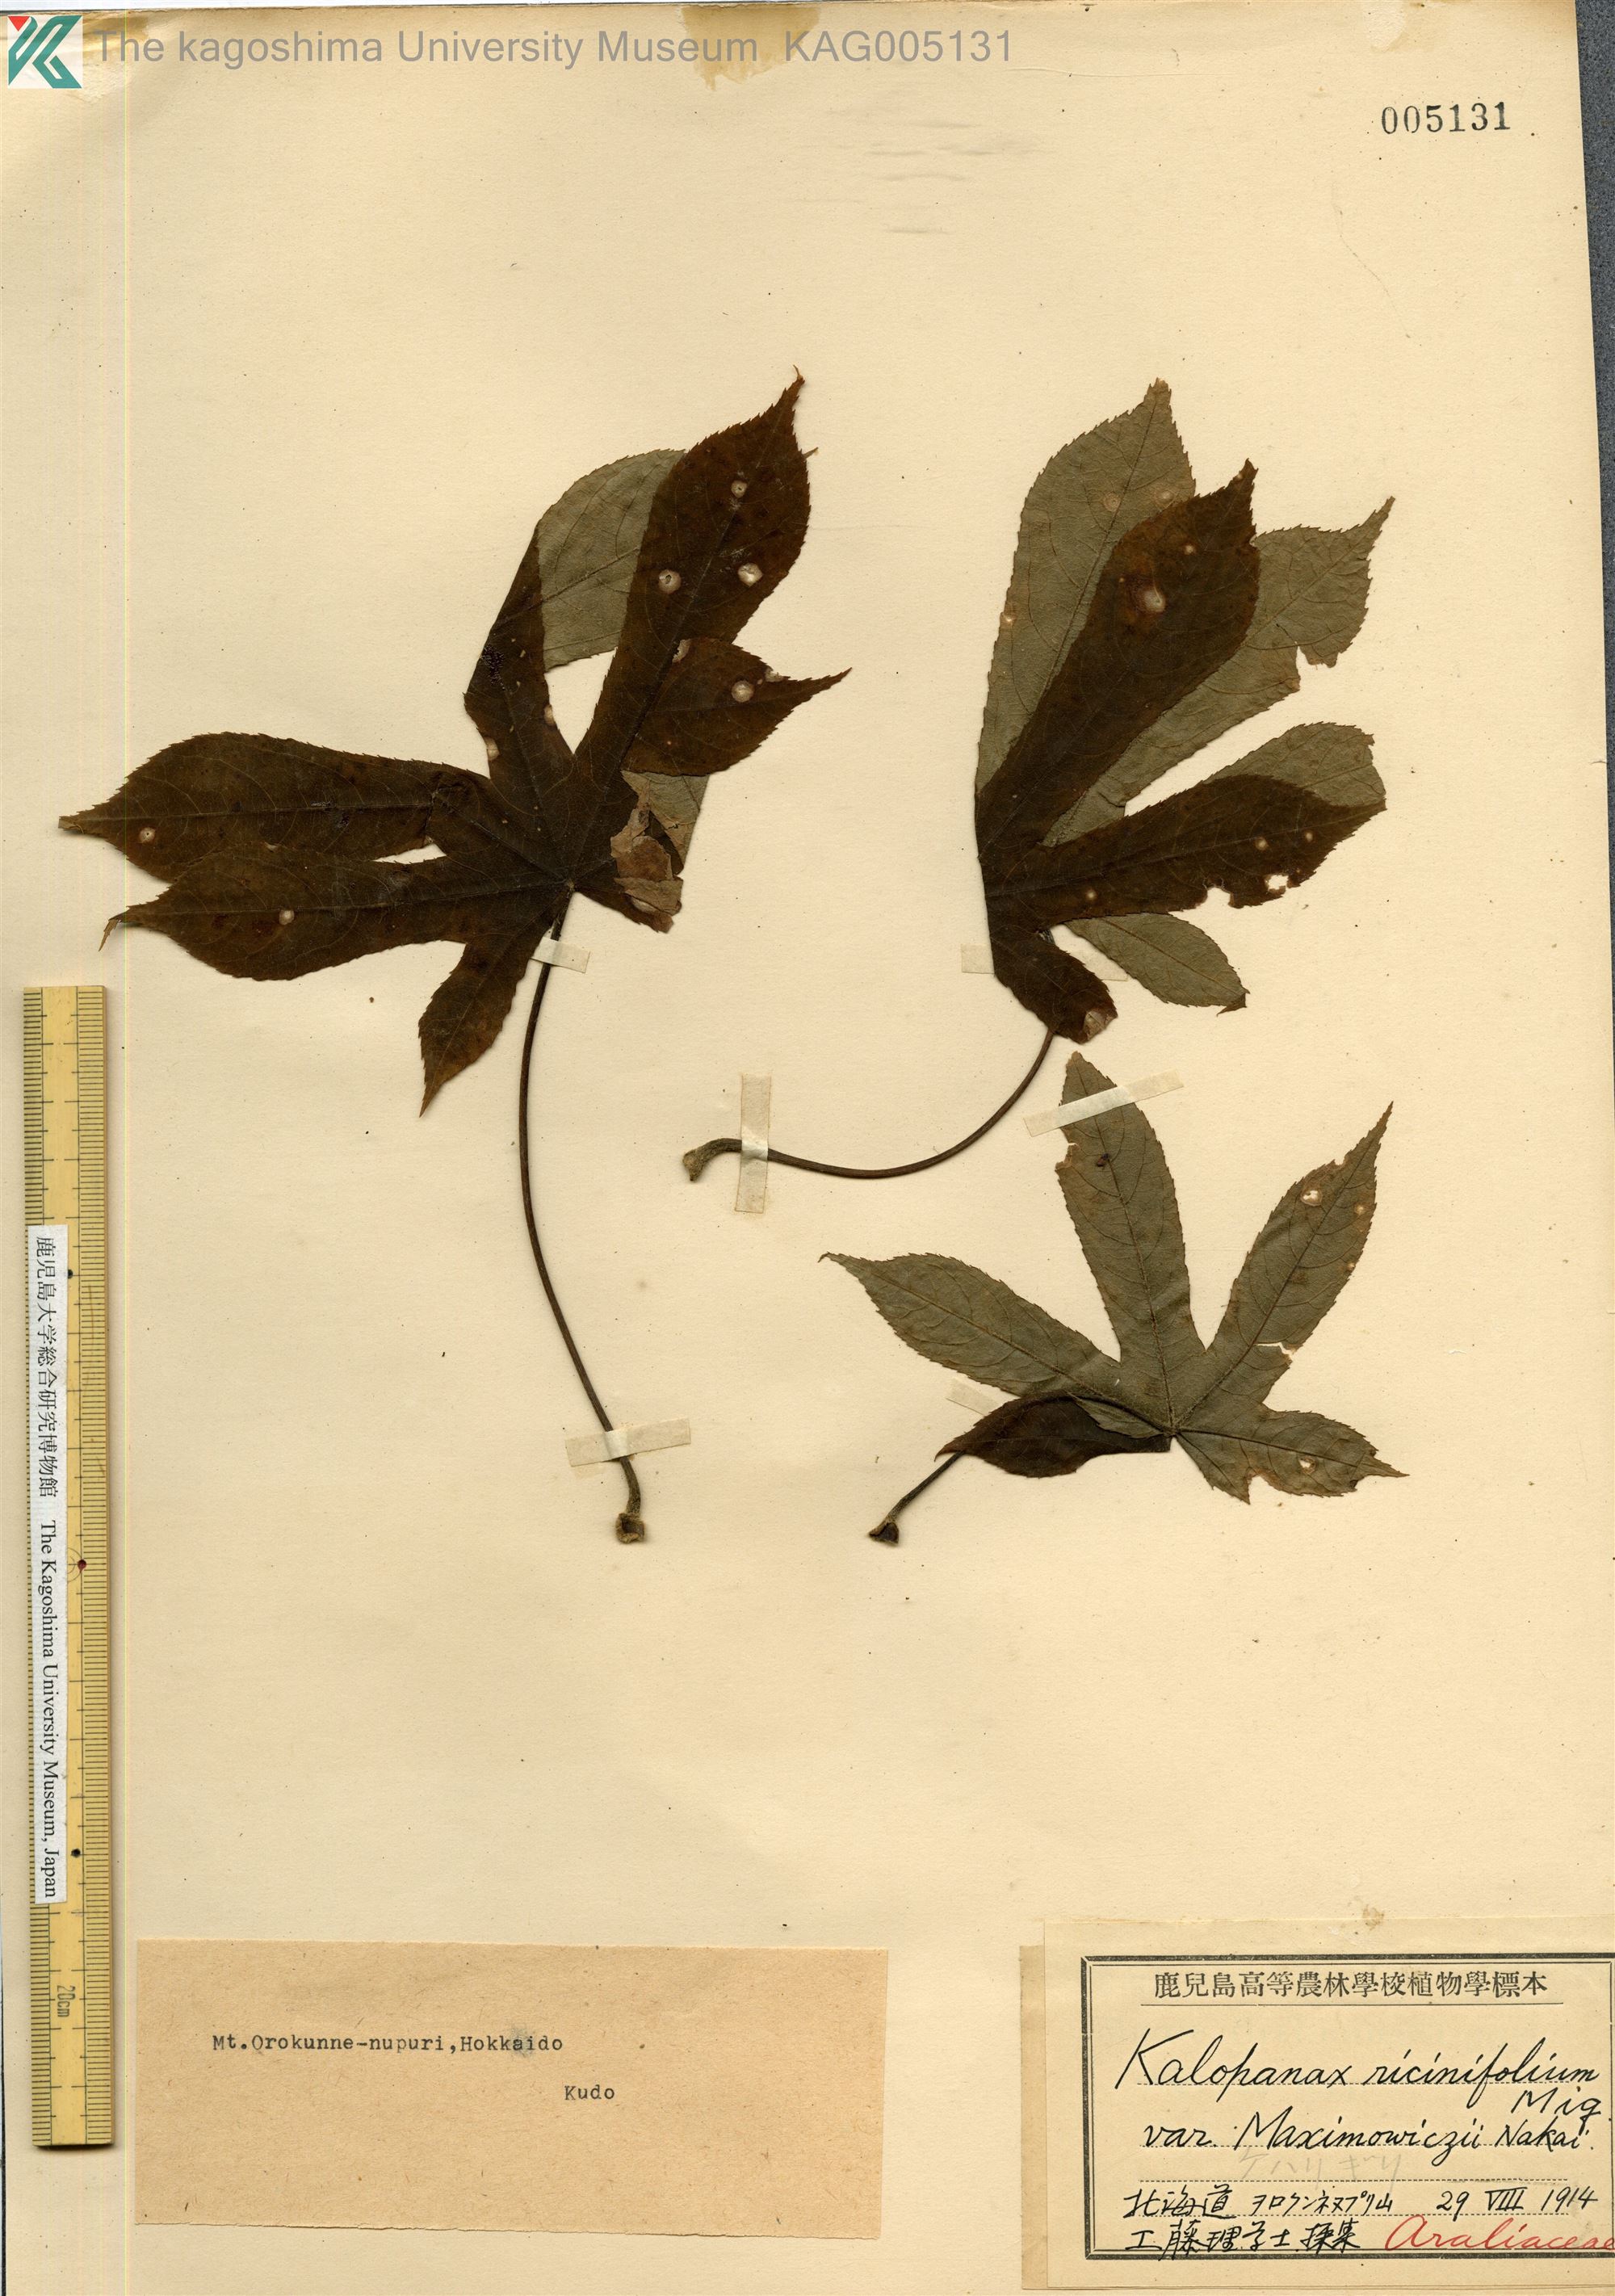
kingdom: Plantae
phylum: Tracheophyta
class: Magnoliopsida
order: Apiales
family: Araliaceae
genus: Kalopanax
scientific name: Kalopanax septemlobus
